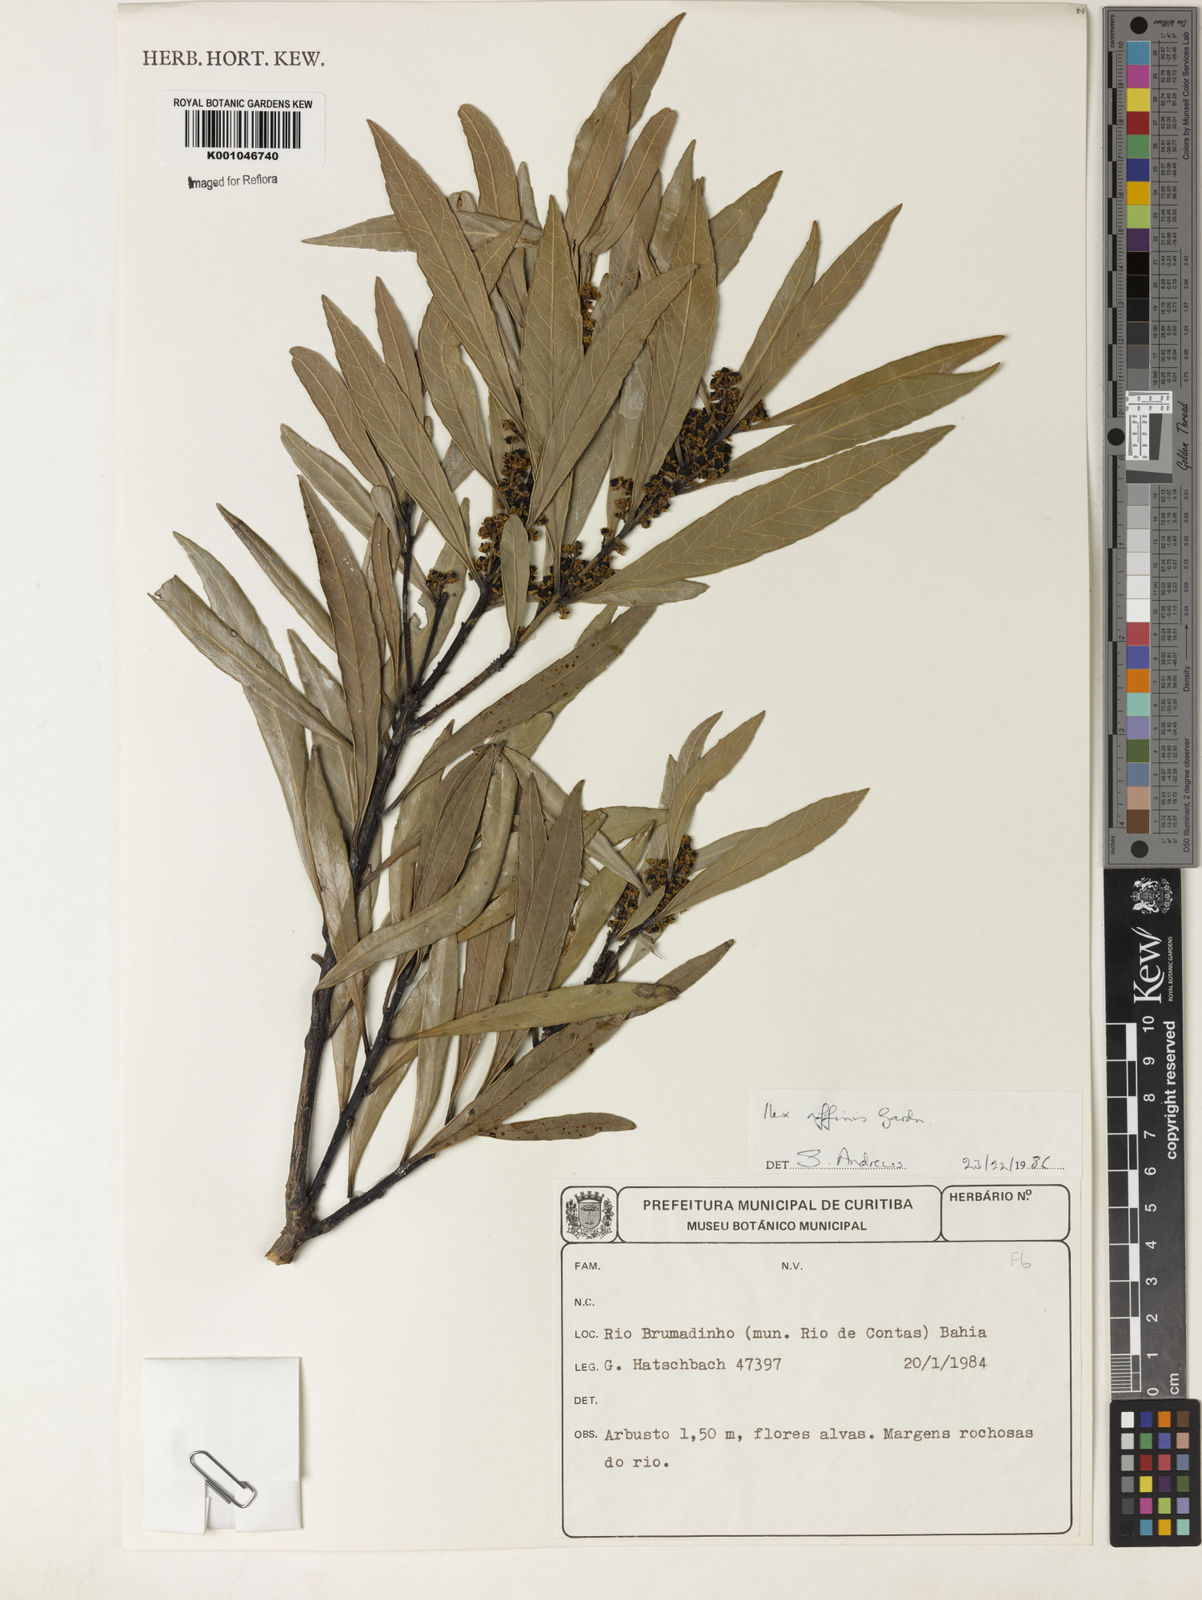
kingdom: Plantae
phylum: Tracheophyta
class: Magnoliopsida
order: Aquifoliales
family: Aquifoliaceae
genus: Ilex
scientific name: Ilex affinis
